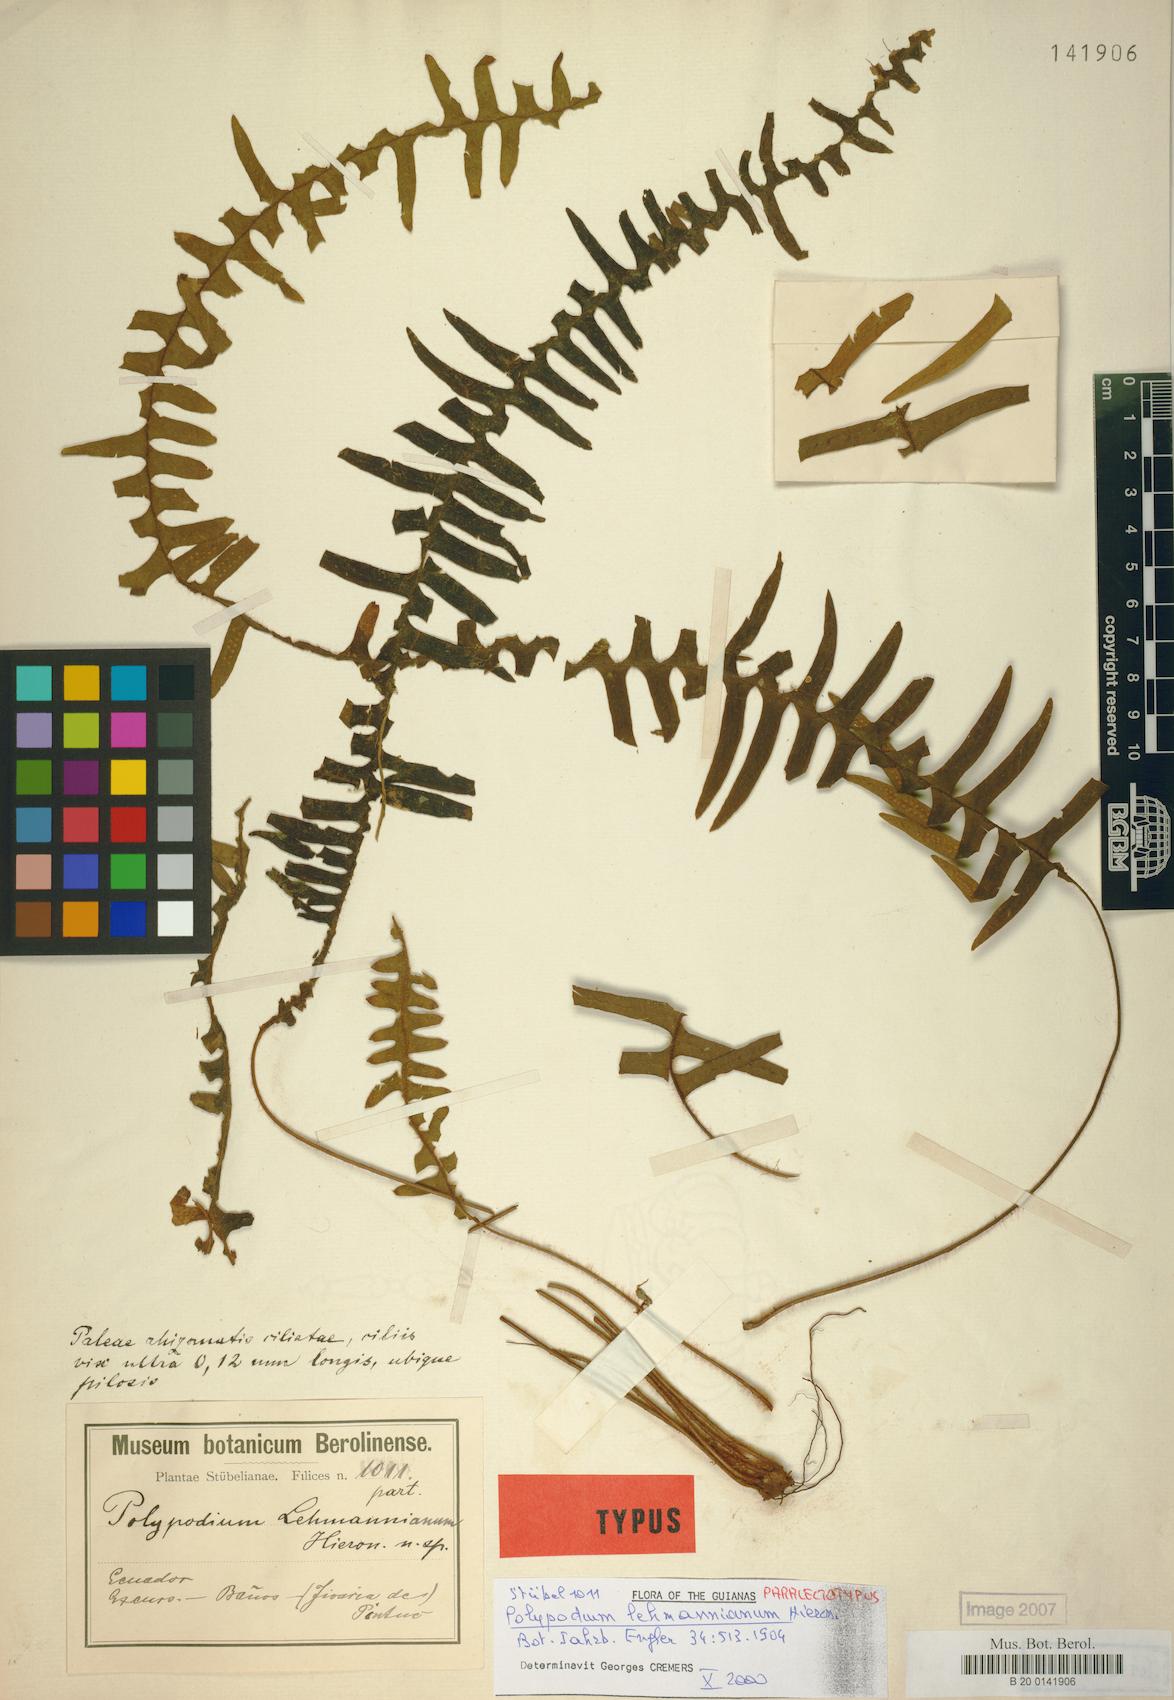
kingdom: Plantae
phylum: Tracheophyta
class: Polypodiopsida
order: Polypodiales
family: Polypodiaceae
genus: Terpsichore
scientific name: Terpsichore lehmanniana
